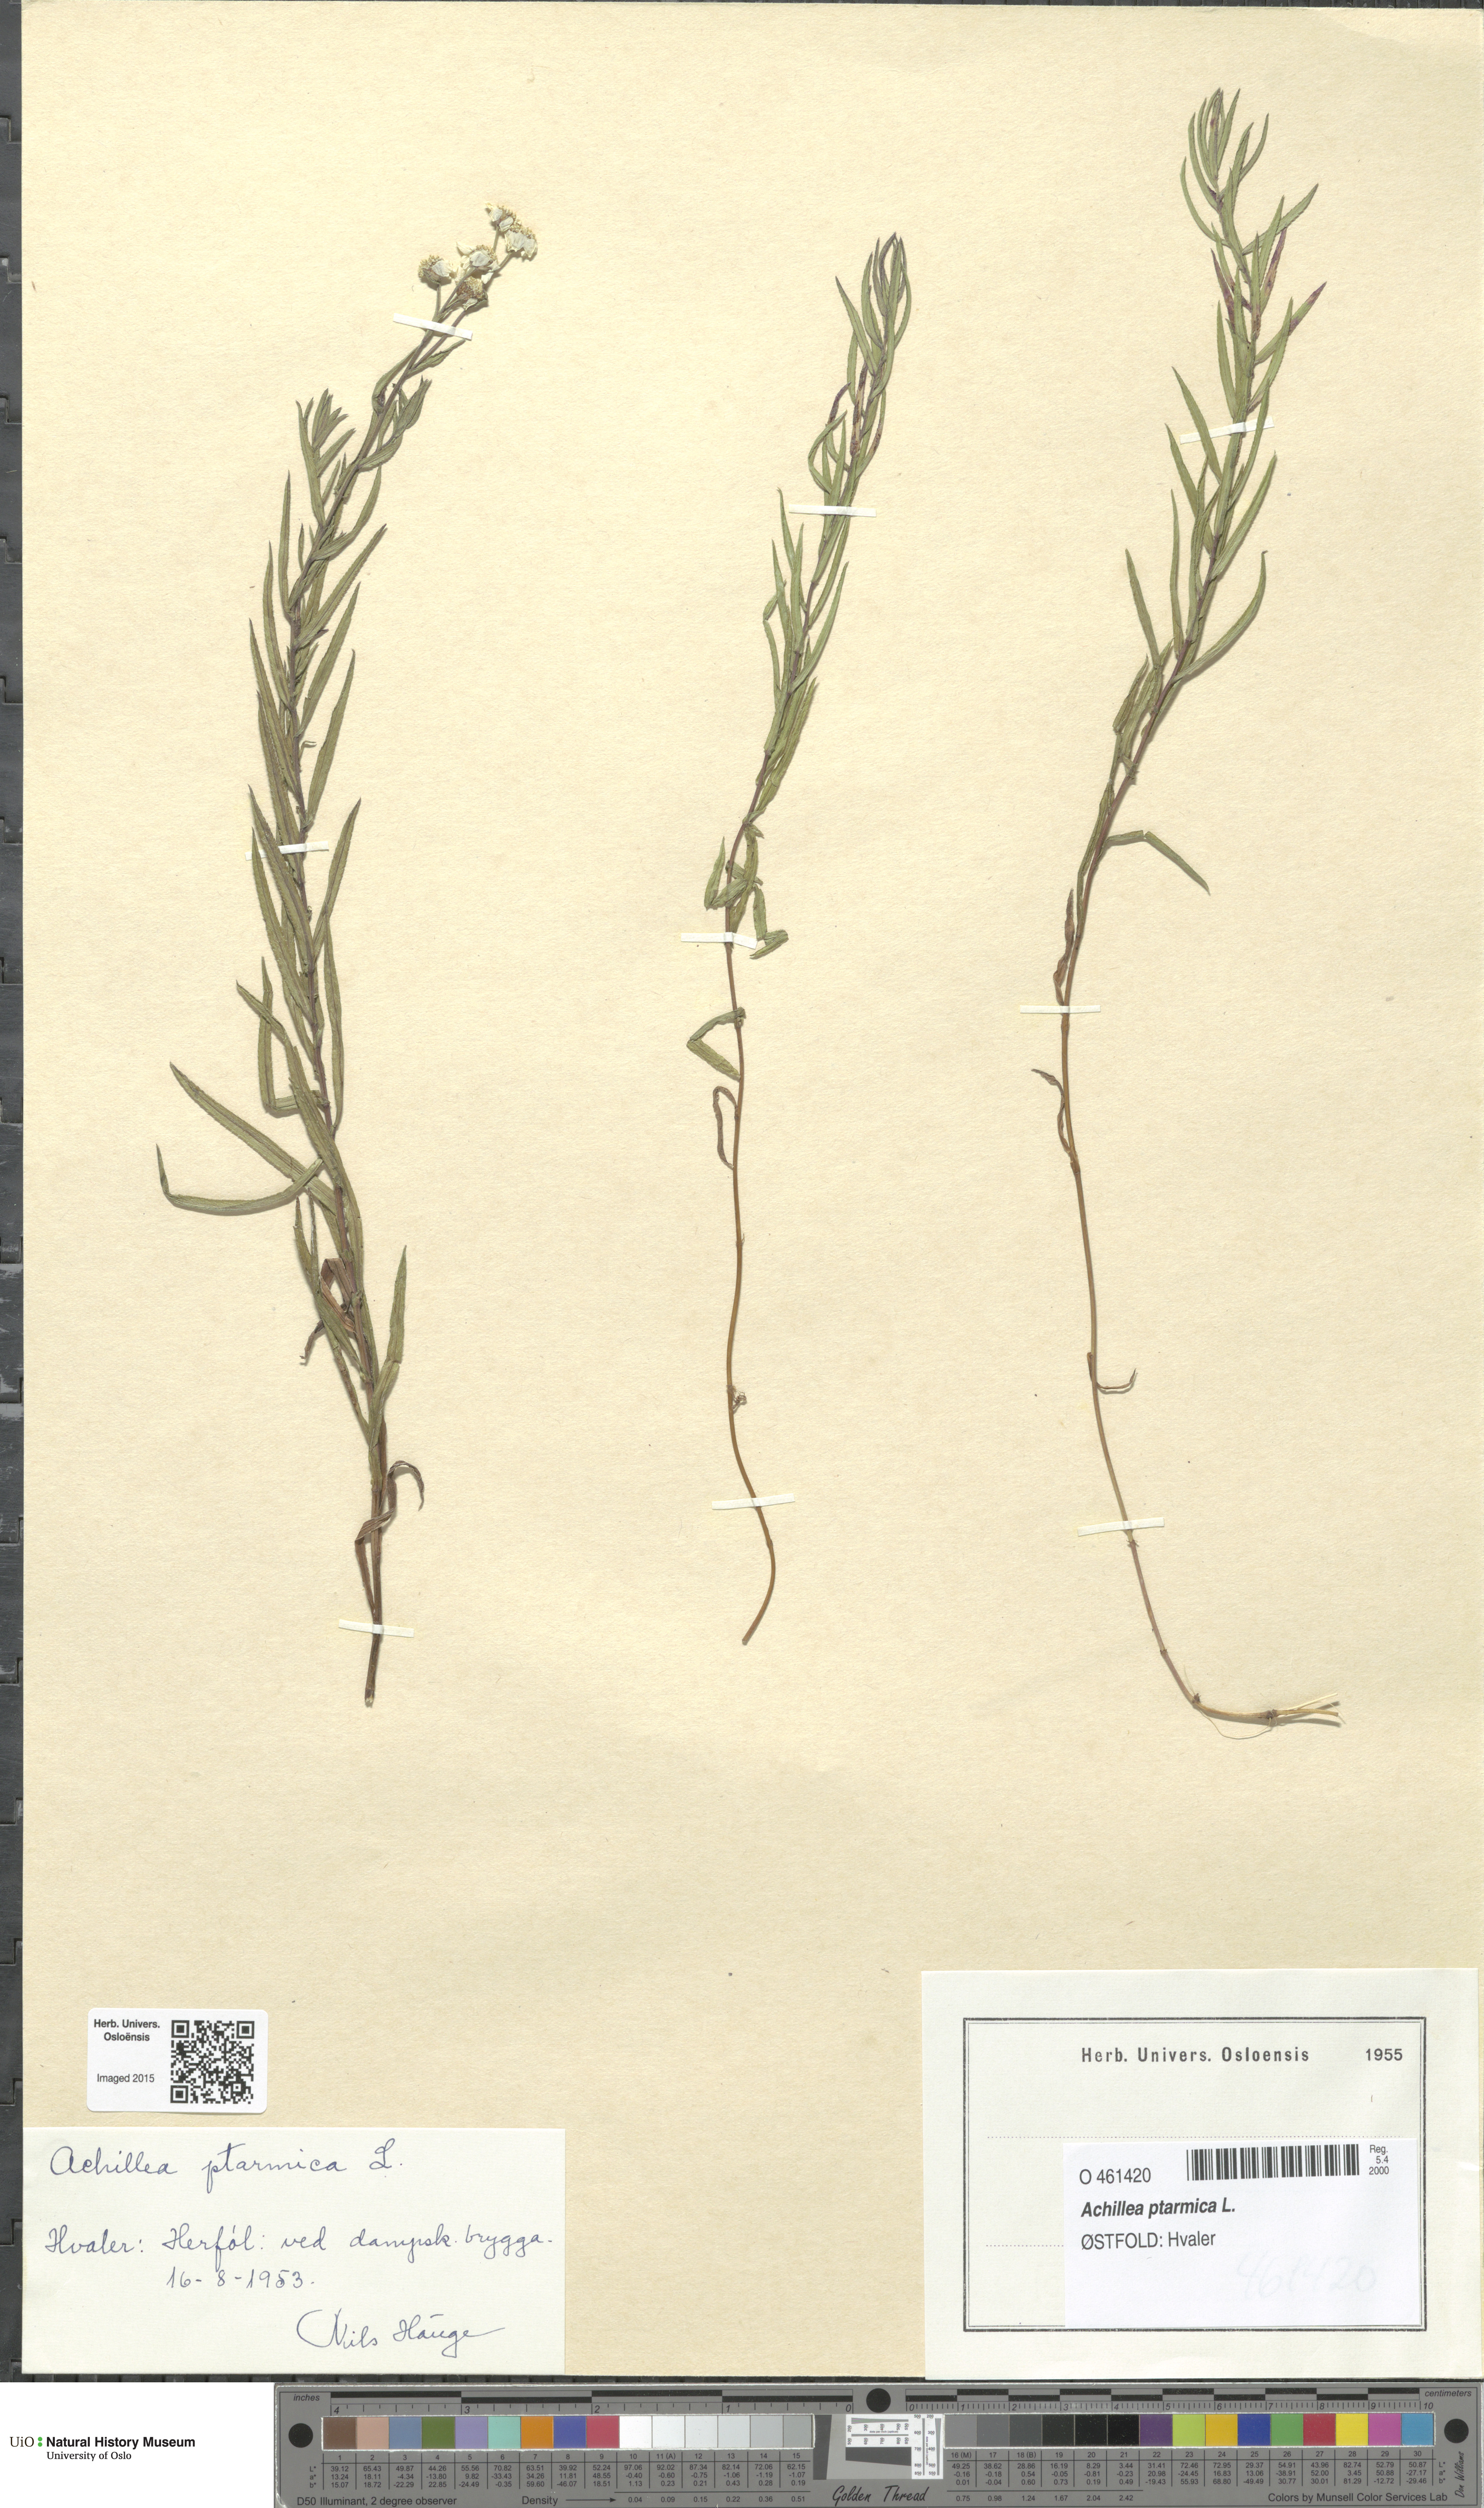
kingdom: Plantae
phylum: Tracheophyta
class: Magnoliopsida
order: Asterales
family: Asteraceae
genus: Achillea
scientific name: Achillea ptarmica
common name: Sneezeweed
